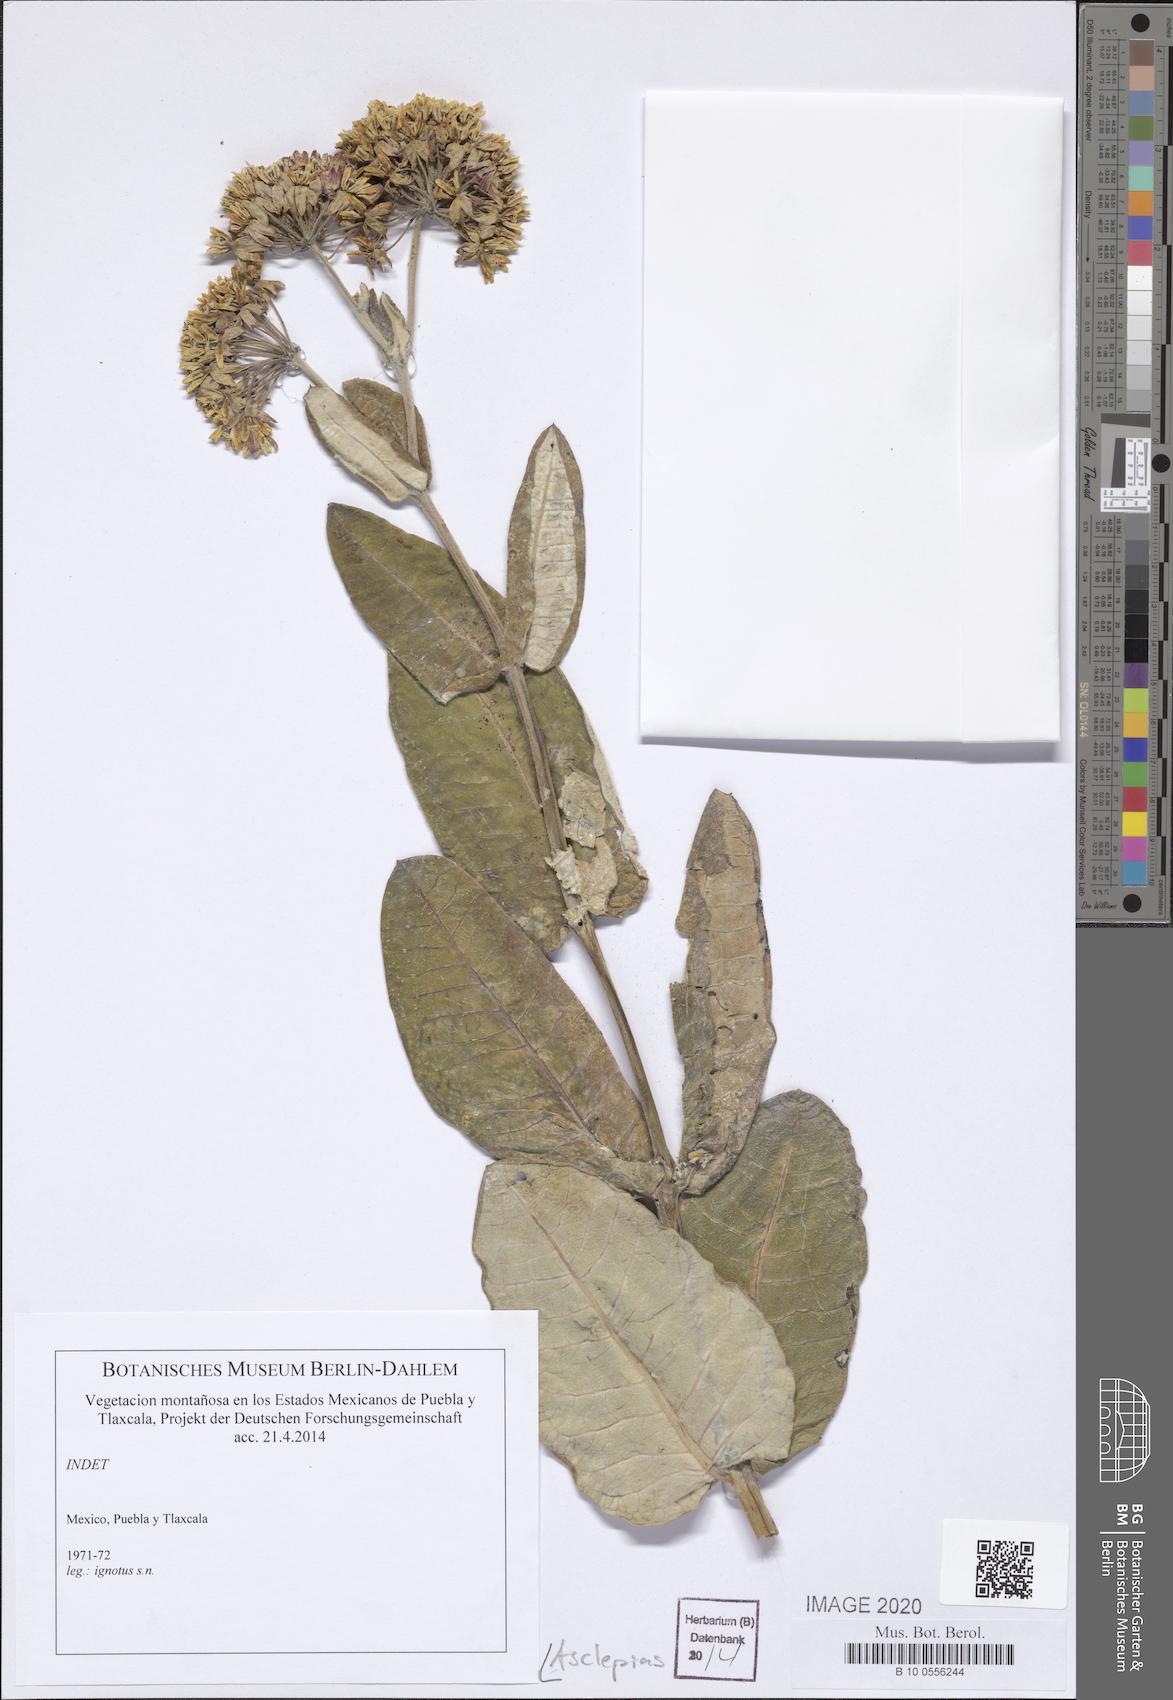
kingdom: Plantae
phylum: Tracheophyta
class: Magnoliopsida
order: Gentianales
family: Apocynaceae
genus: Asclepias
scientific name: Asclepias
